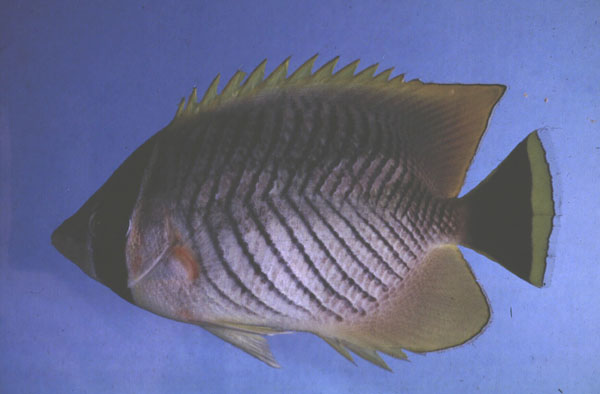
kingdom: Animalia
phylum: Chordata
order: Perciformes
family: Chaetodontidae
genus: Chaetodon
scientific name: Chaetodon trifascialis
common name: Chevroned butterflyfish
